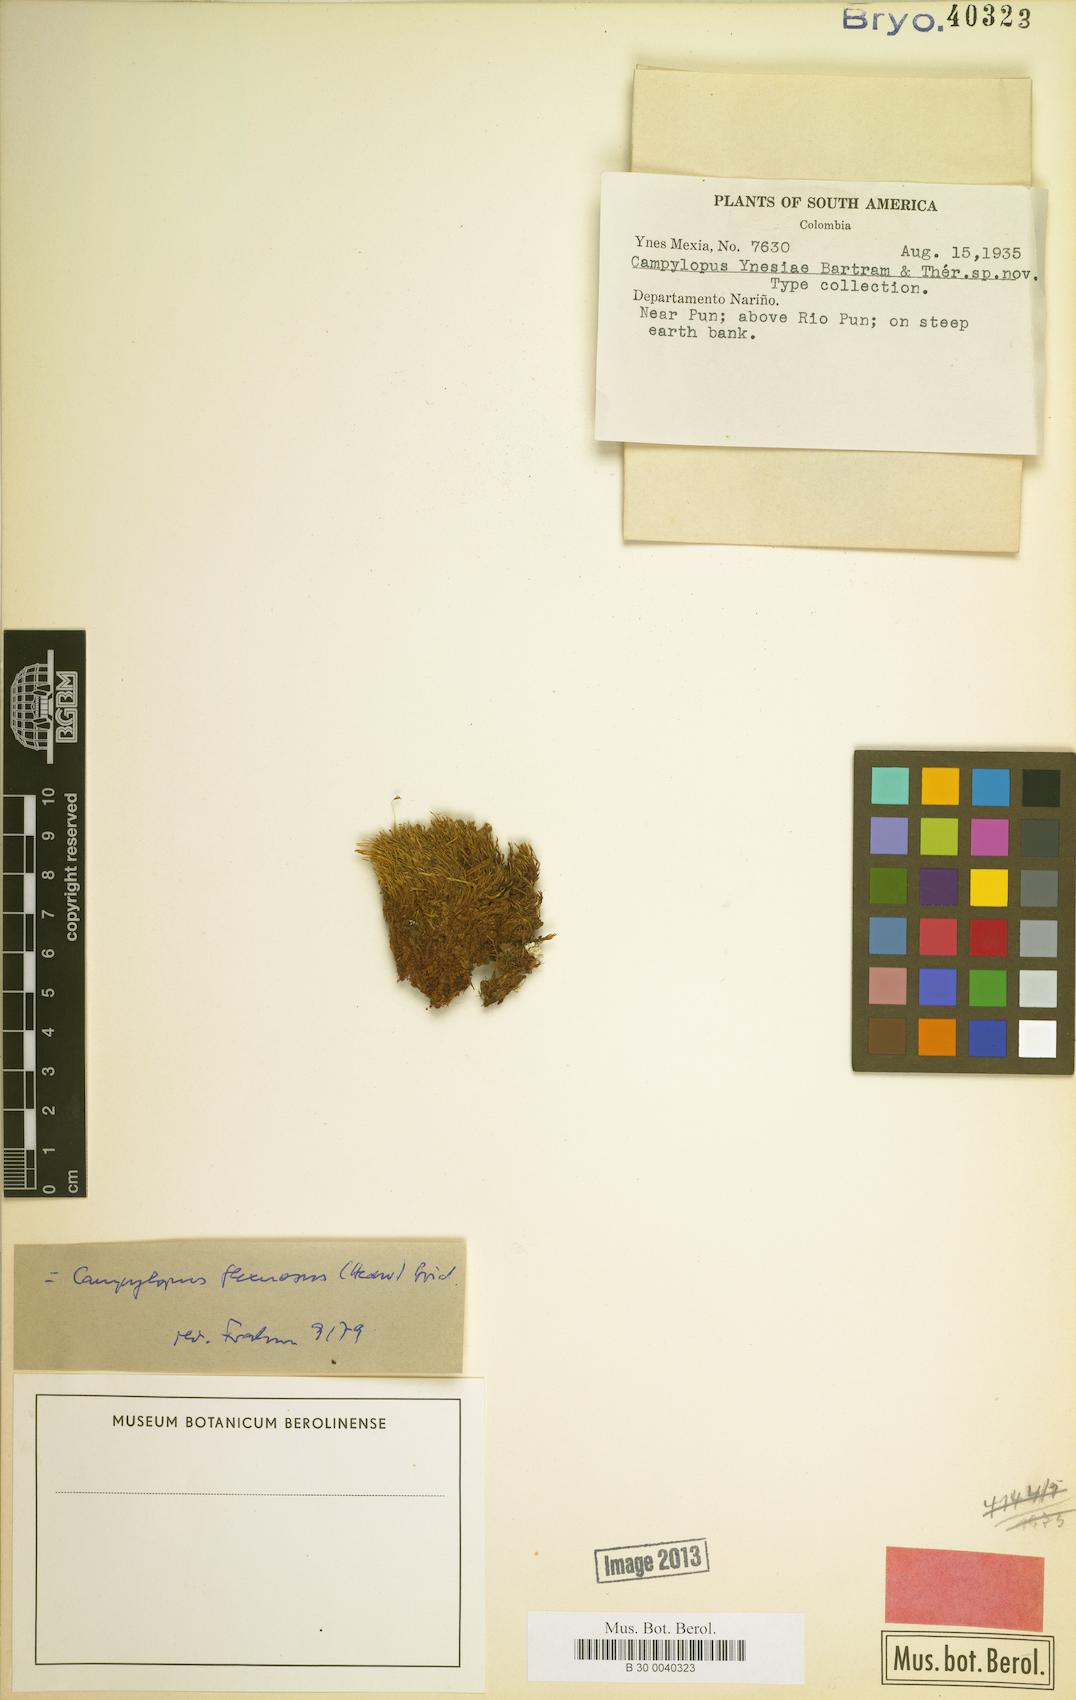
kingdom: Plantae
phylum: Bryophyta
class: Bryopsida
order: Dicranales
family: Leucobryaceae
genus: Campylopus
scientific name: Campylopus flexuosus
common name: Rusty swan-neck moss
